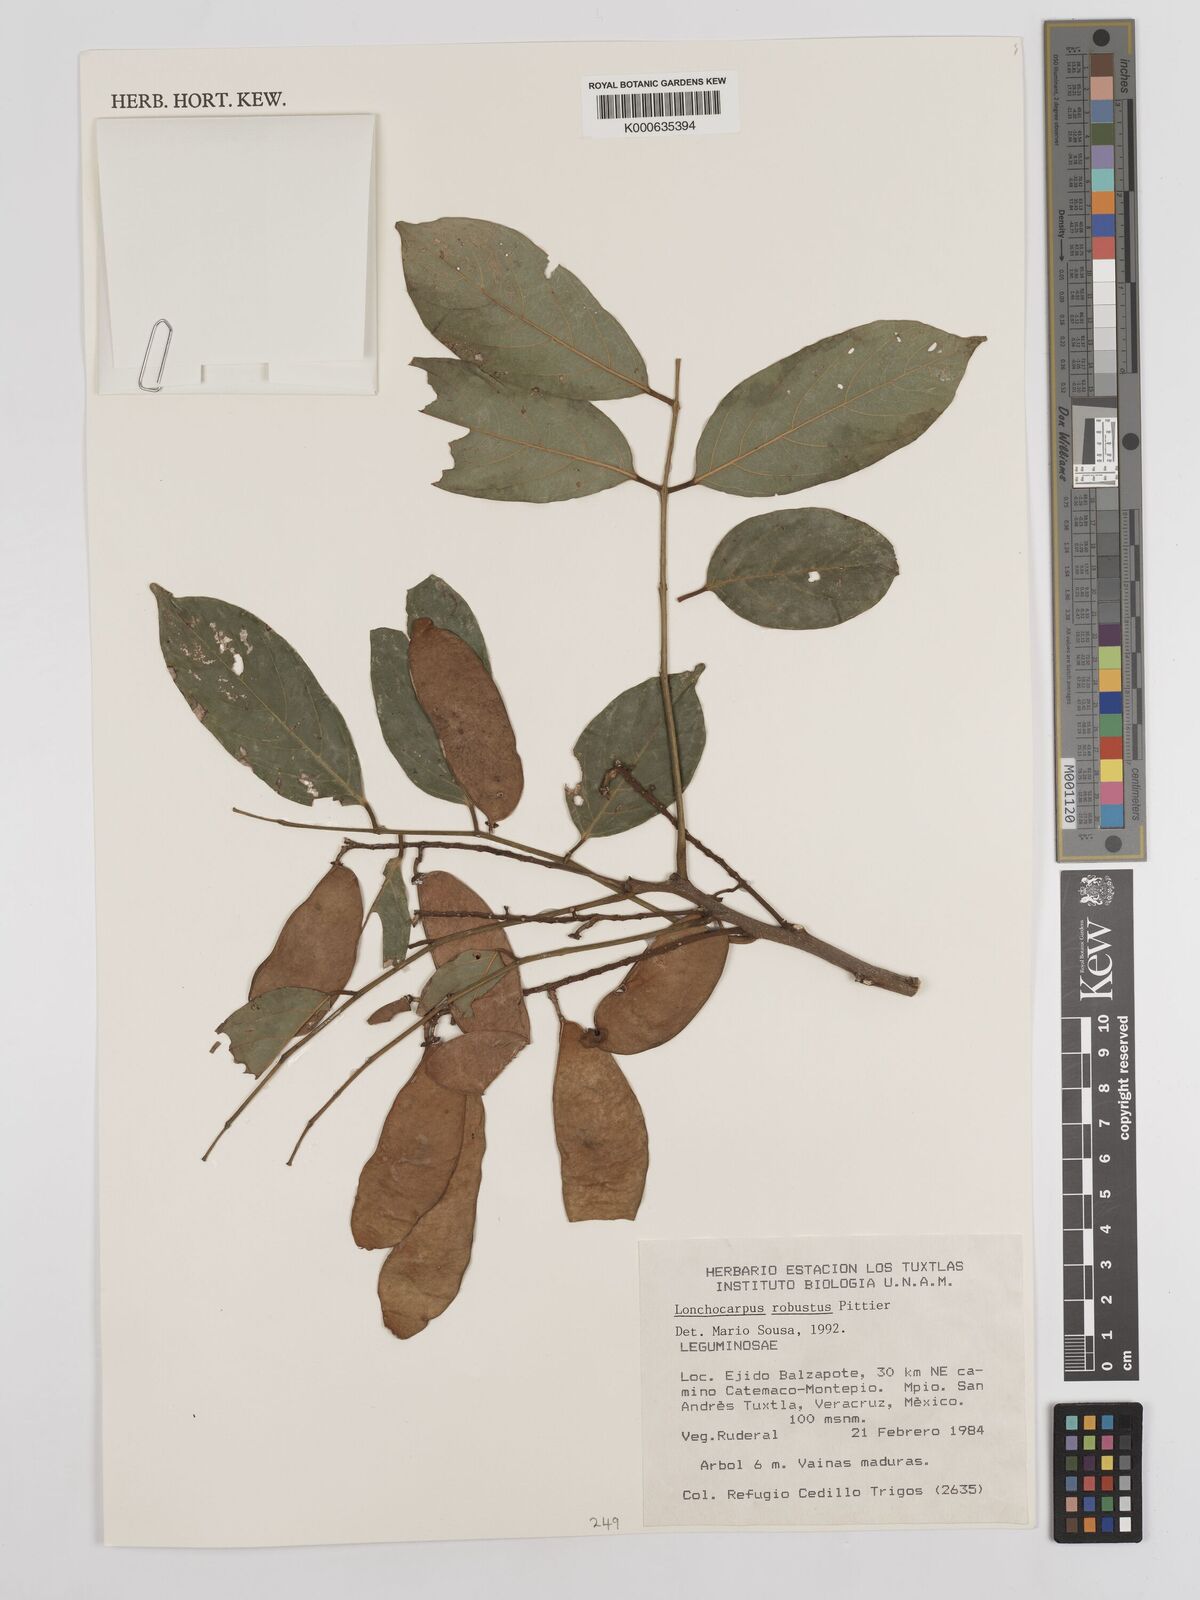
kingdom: Plantae
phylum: Tracheophyta
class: Magnoliopsida
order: Fabales
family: Fabaceae
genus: Lonchocarpus
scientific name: Lonchocarpus robustus
